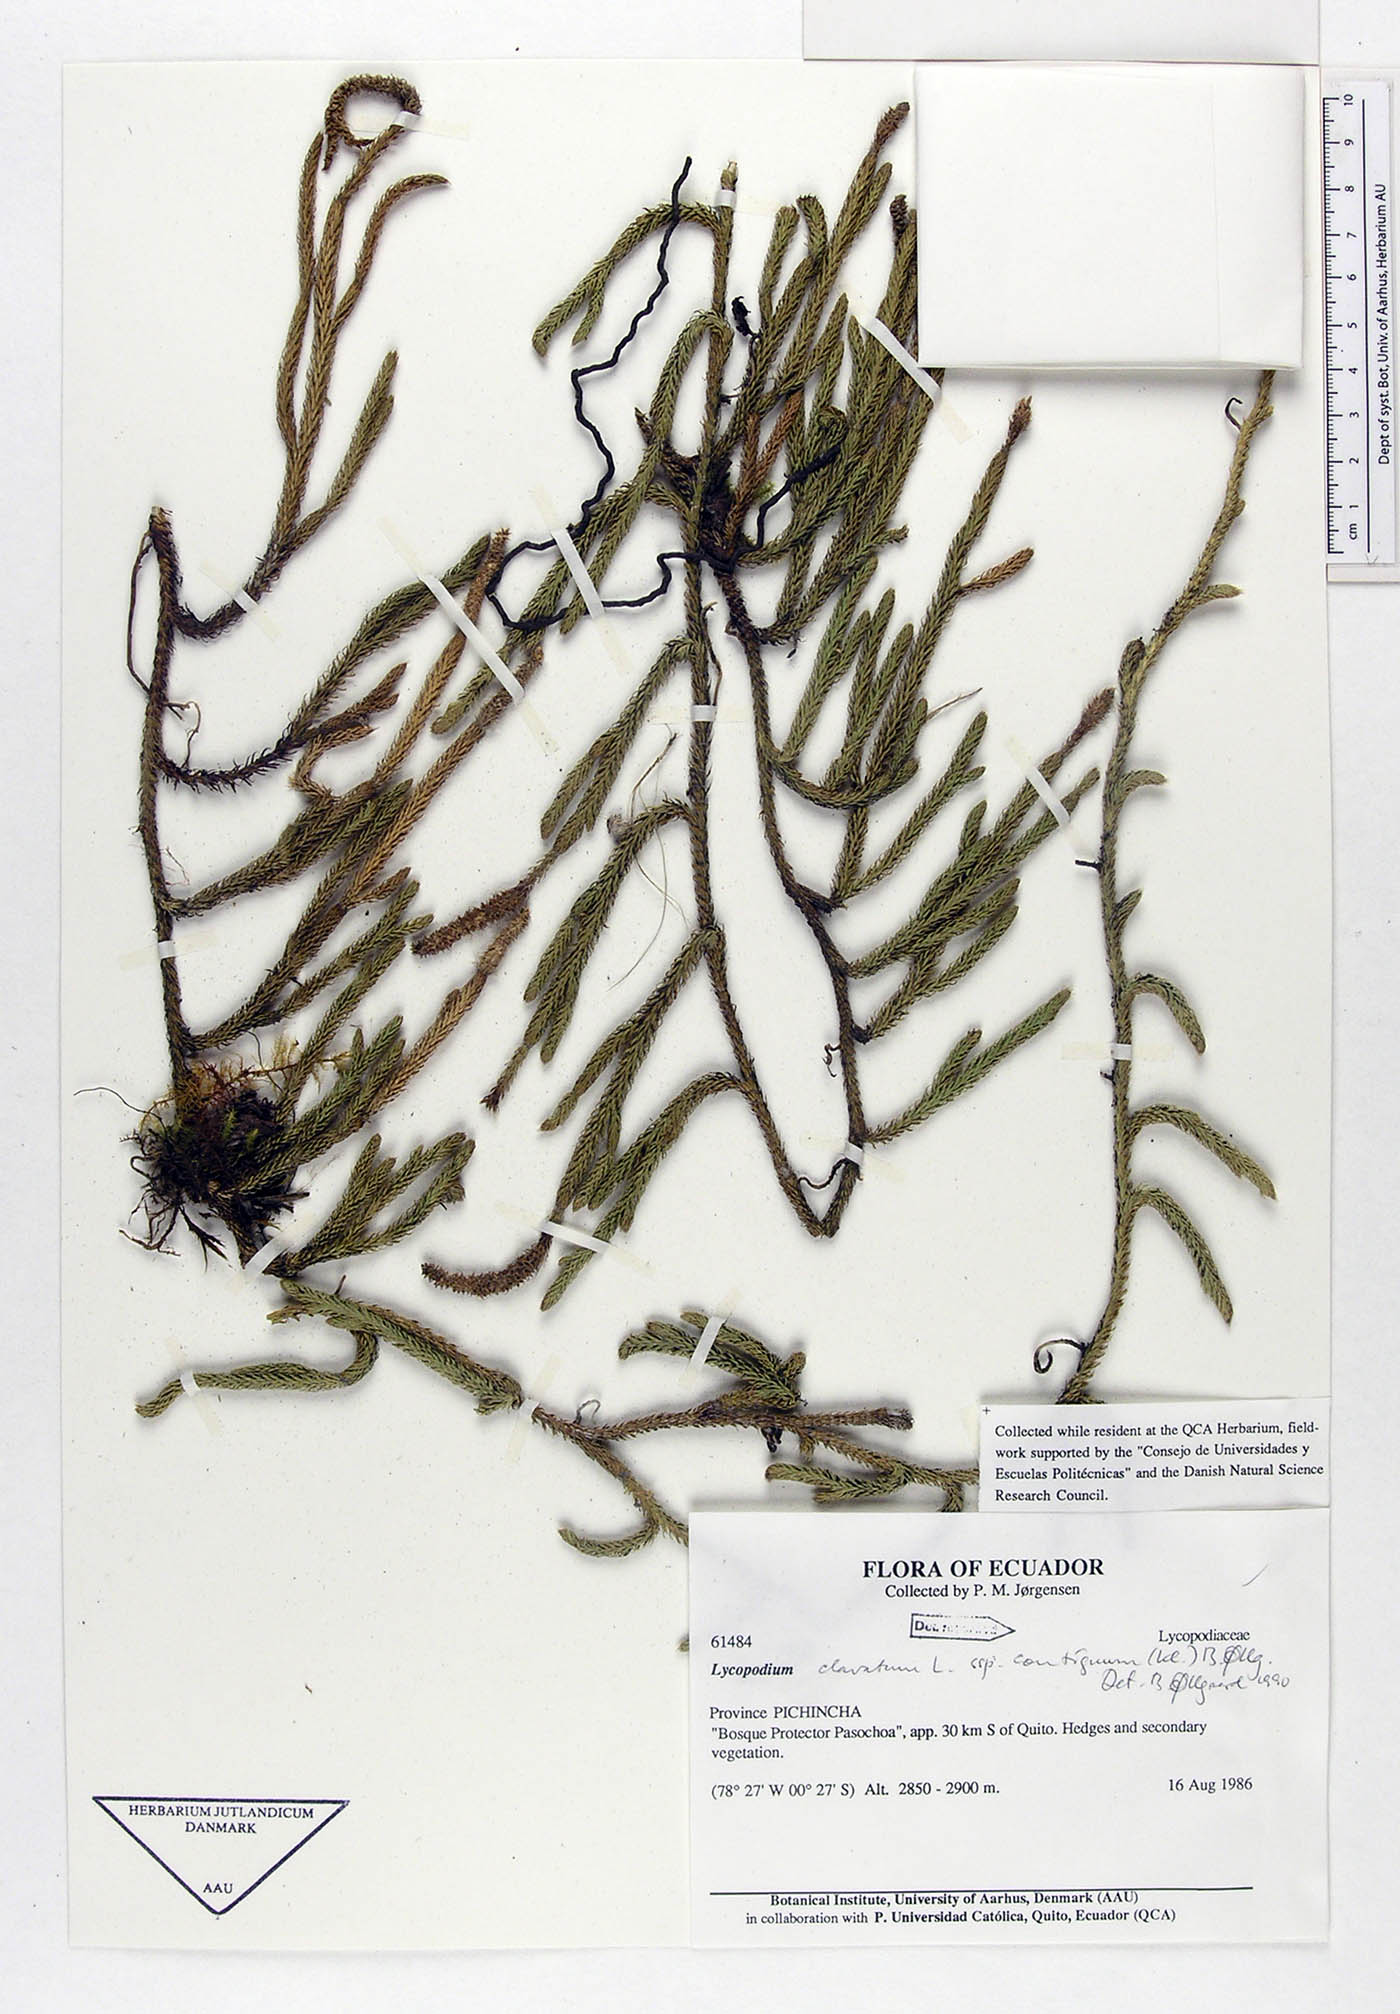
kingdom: Plantae
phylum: Tracheophyta
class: Lycopodiopsida
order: Lycopodiales
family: Lycopodiaceae
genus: Lycopodium
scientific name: Lycopodium clavatum
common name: Stag's-horn clubmoss
